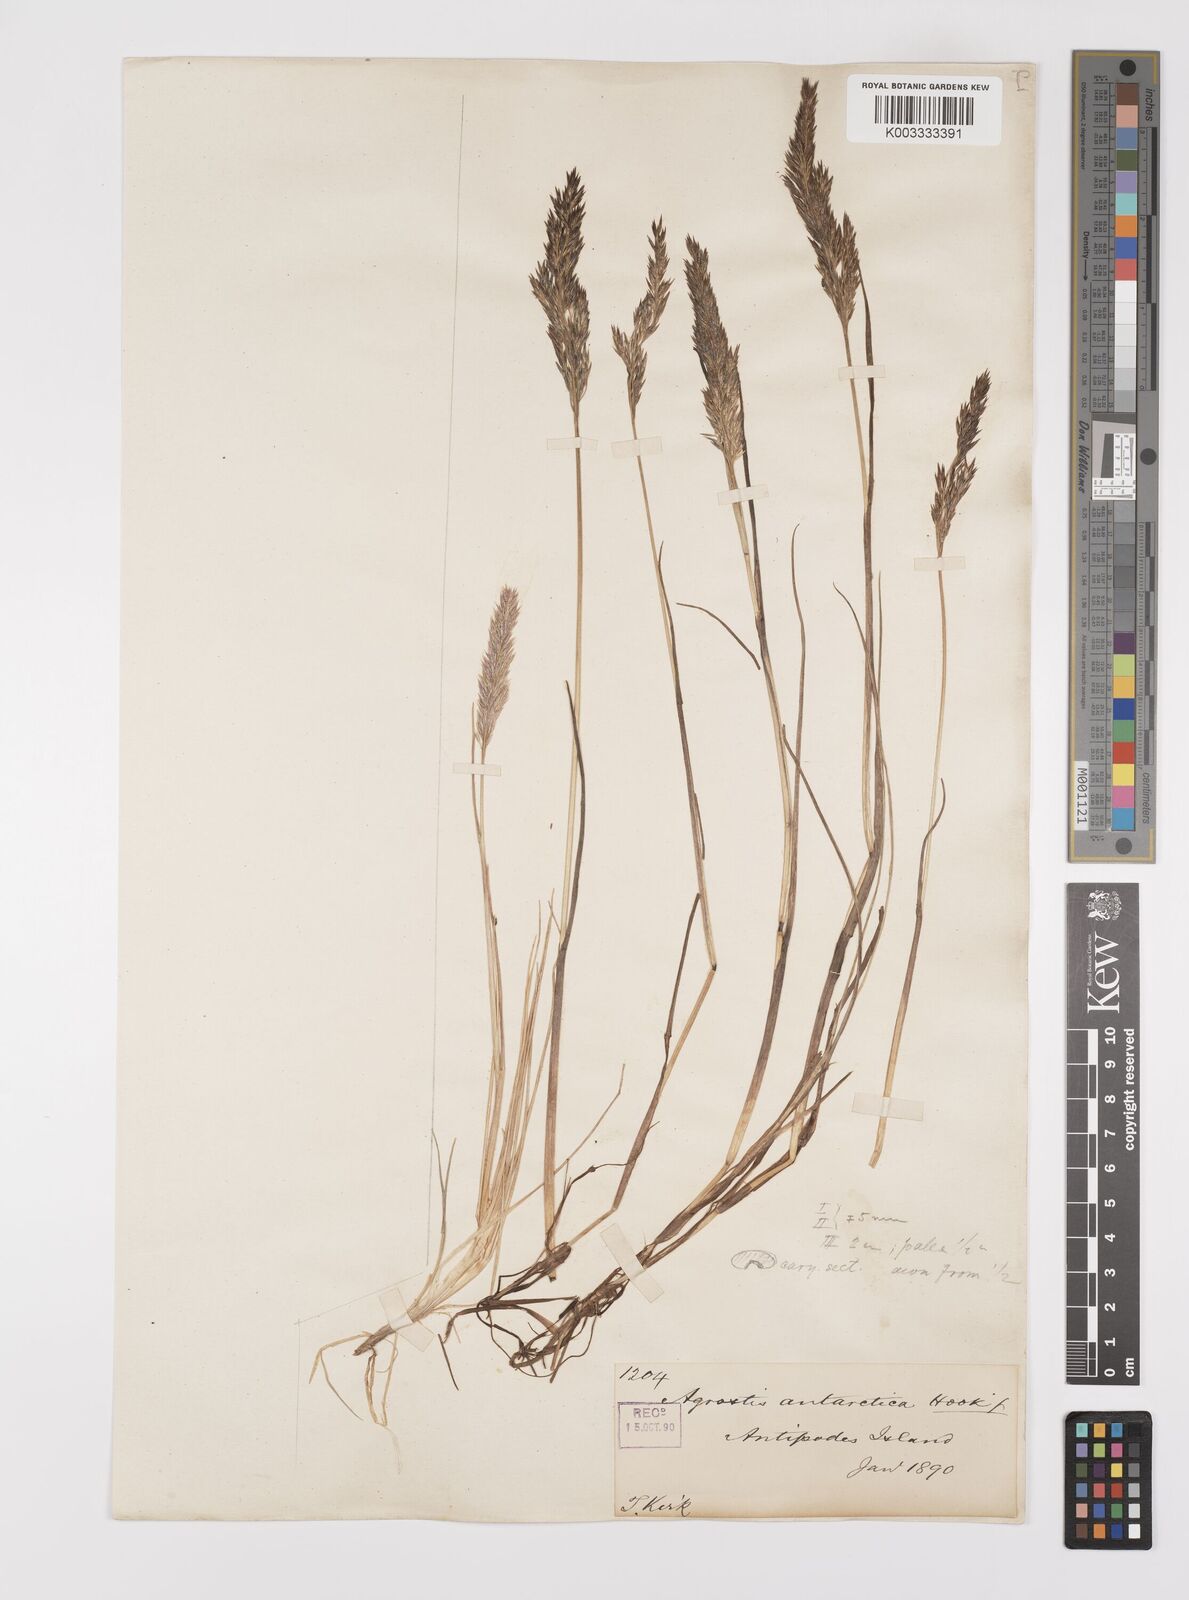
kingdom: Plantae
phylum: Tracheophyta
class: Liliopsida
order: Poales
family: Poaceae
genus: Polypogon
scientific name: Polypogon magellanicus
